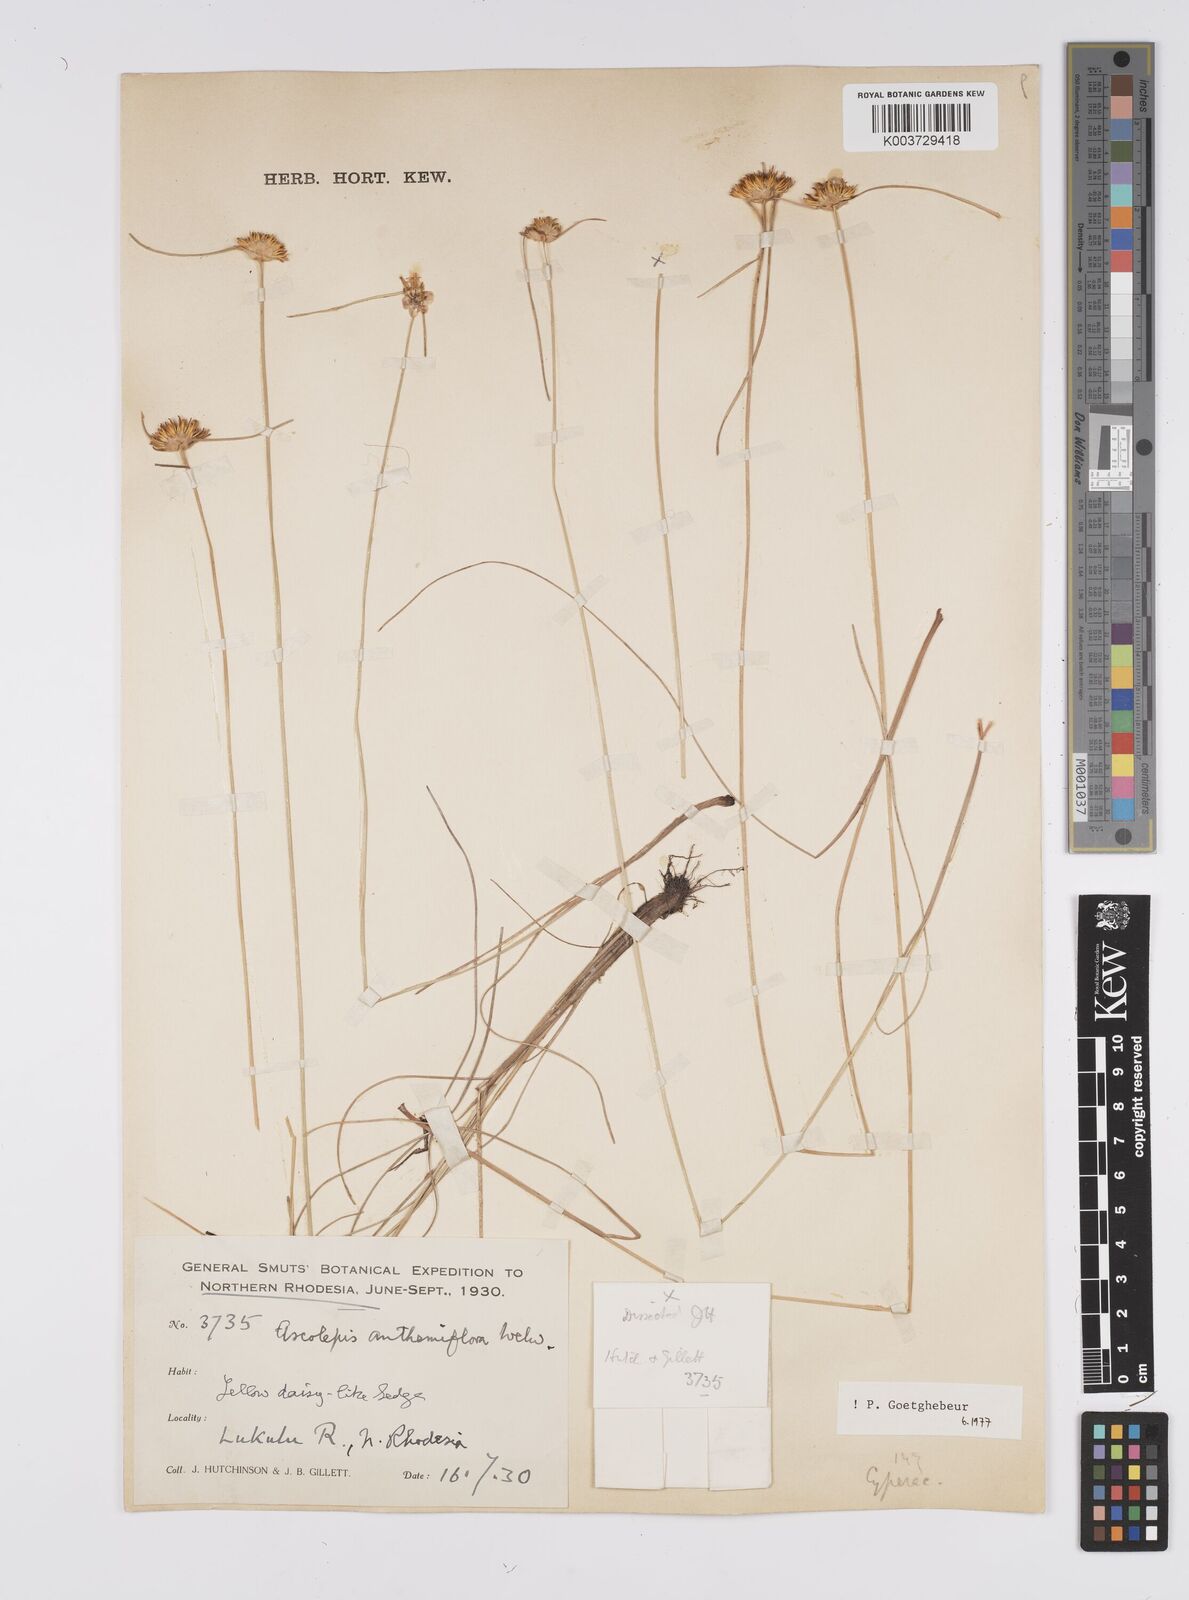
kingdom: Plantae
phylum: Tracheophyta
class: Liliopsida
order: Poales
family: Cyperaceae
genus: Cyperus
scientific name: Cyperus
